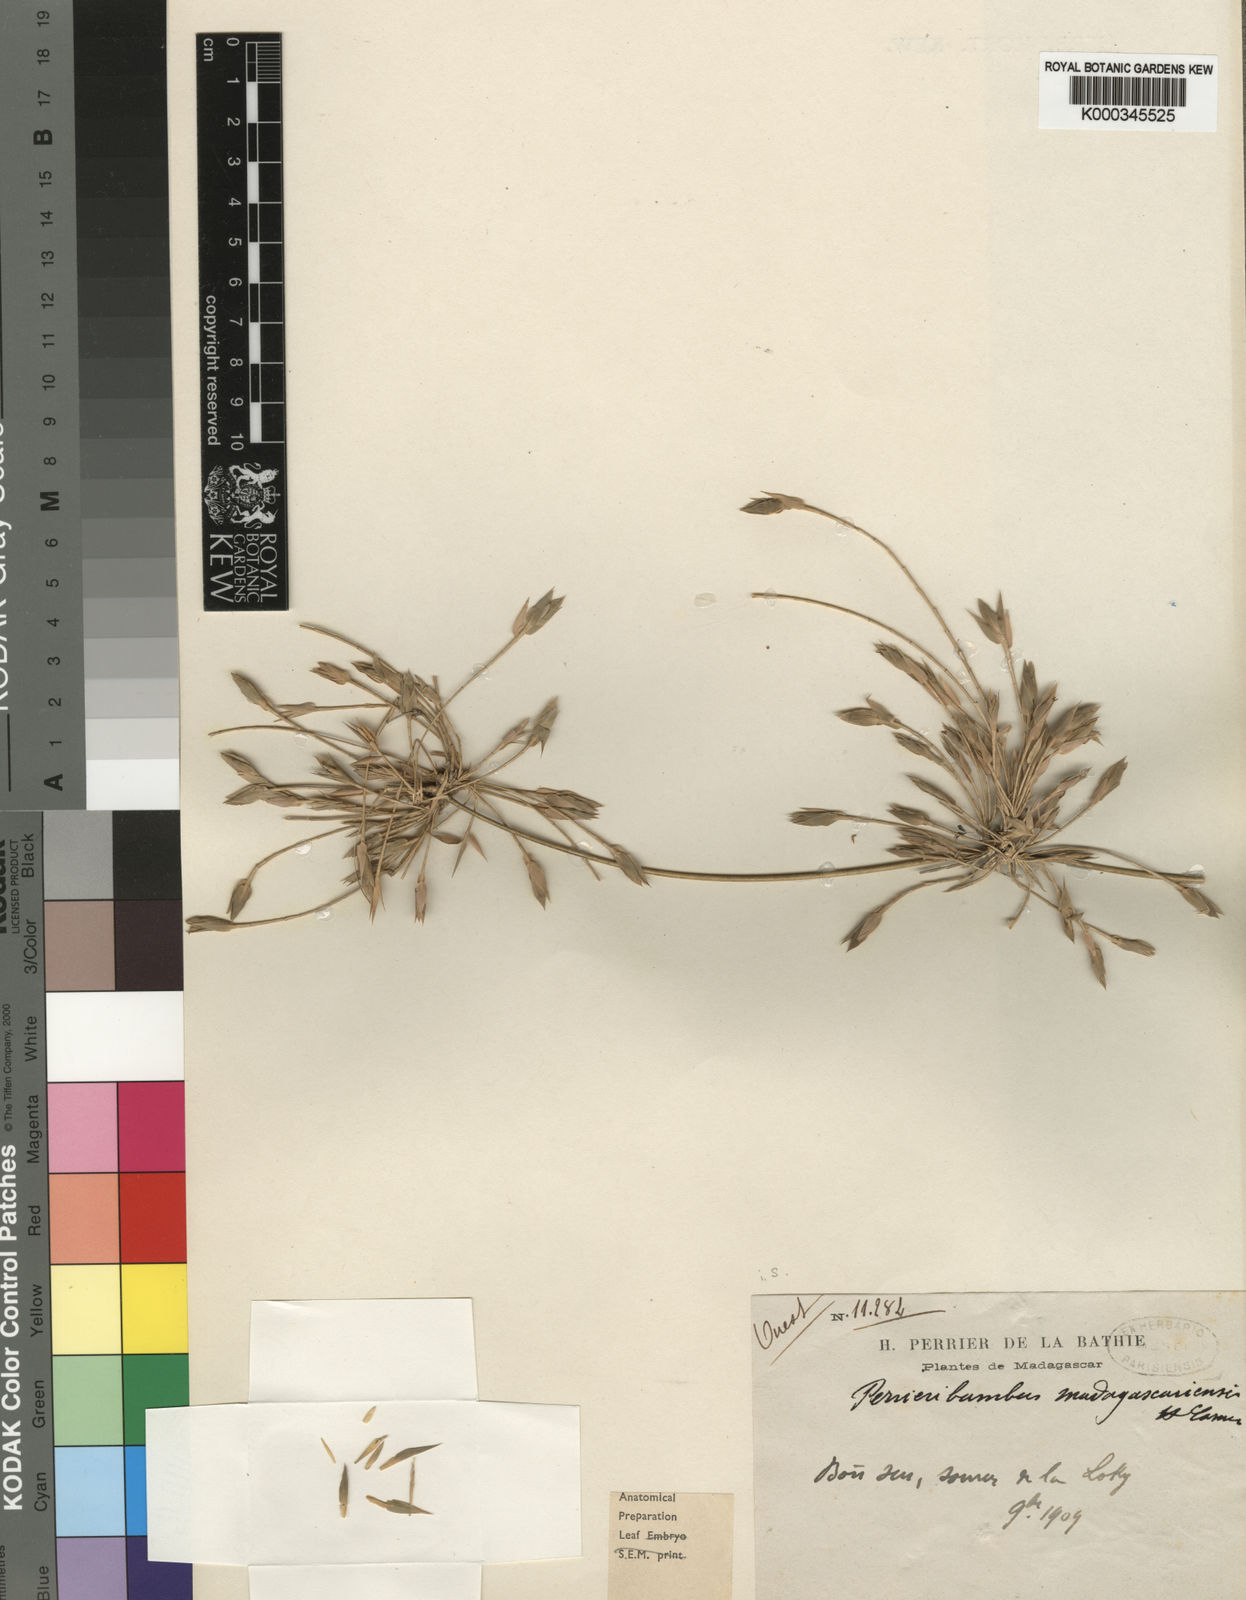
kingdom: Plantae
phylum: Tracheophyta
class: Liliopsida
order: Poales
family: Poaceae
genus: Perrierbambus
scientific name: Perrierbambus madagascariensis
